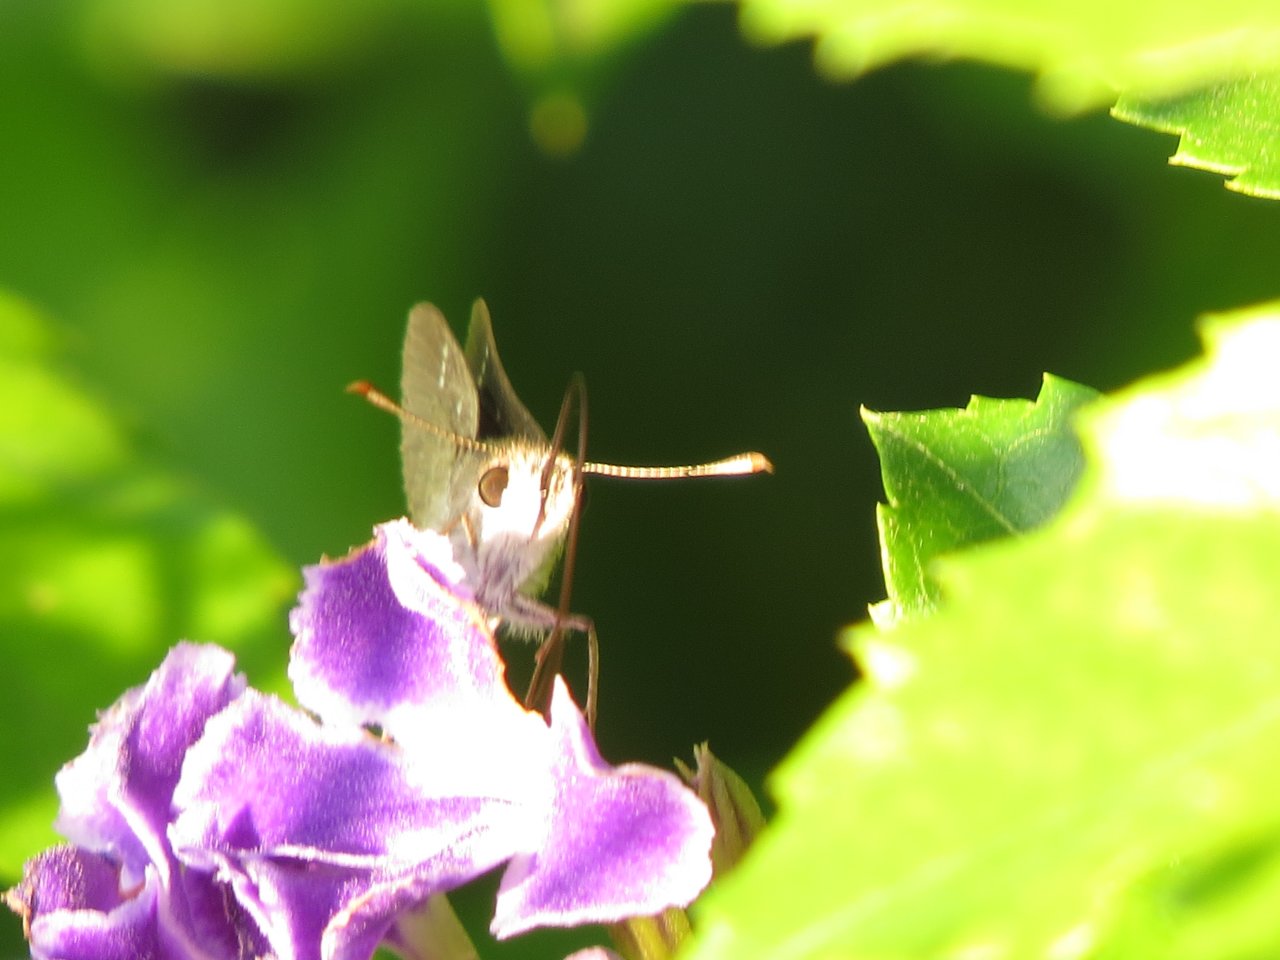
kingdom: Animalia
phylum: Arthropoda
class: Insecta
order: Lepidoptera
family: Hesperiidae
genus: Lerema
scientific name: Lerema accius
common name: Clouded Skipper
